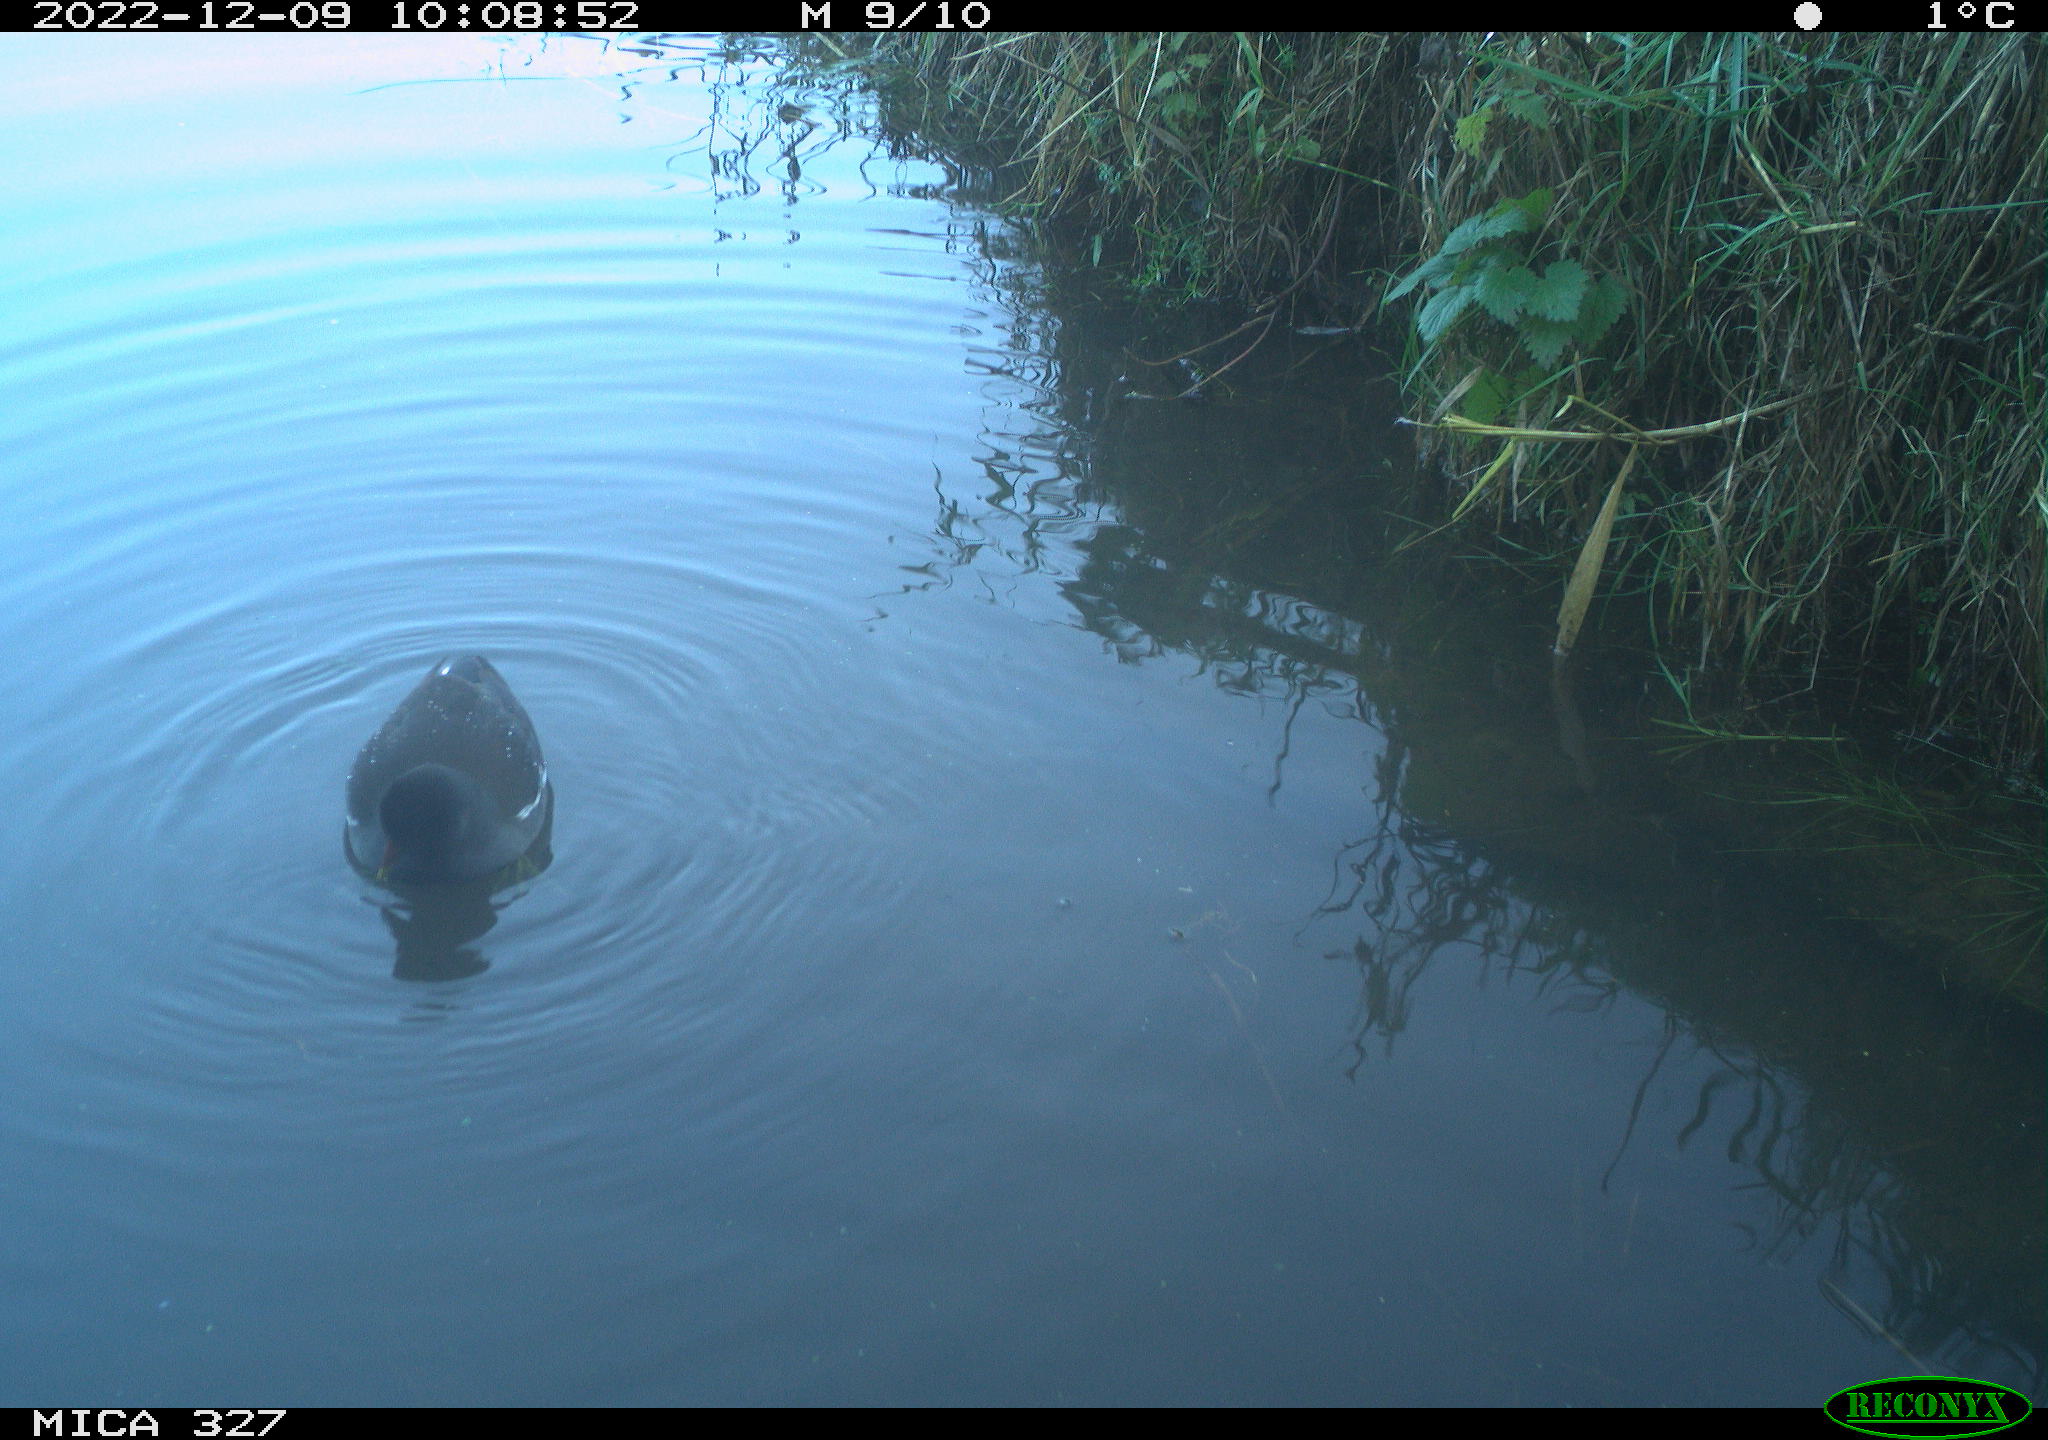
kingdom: Animalia
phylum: Chordata
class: Aves
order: Gruiformes
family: Rallidae
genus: Gallinula
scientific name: Gallinula chloropus
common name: Common moorhen
